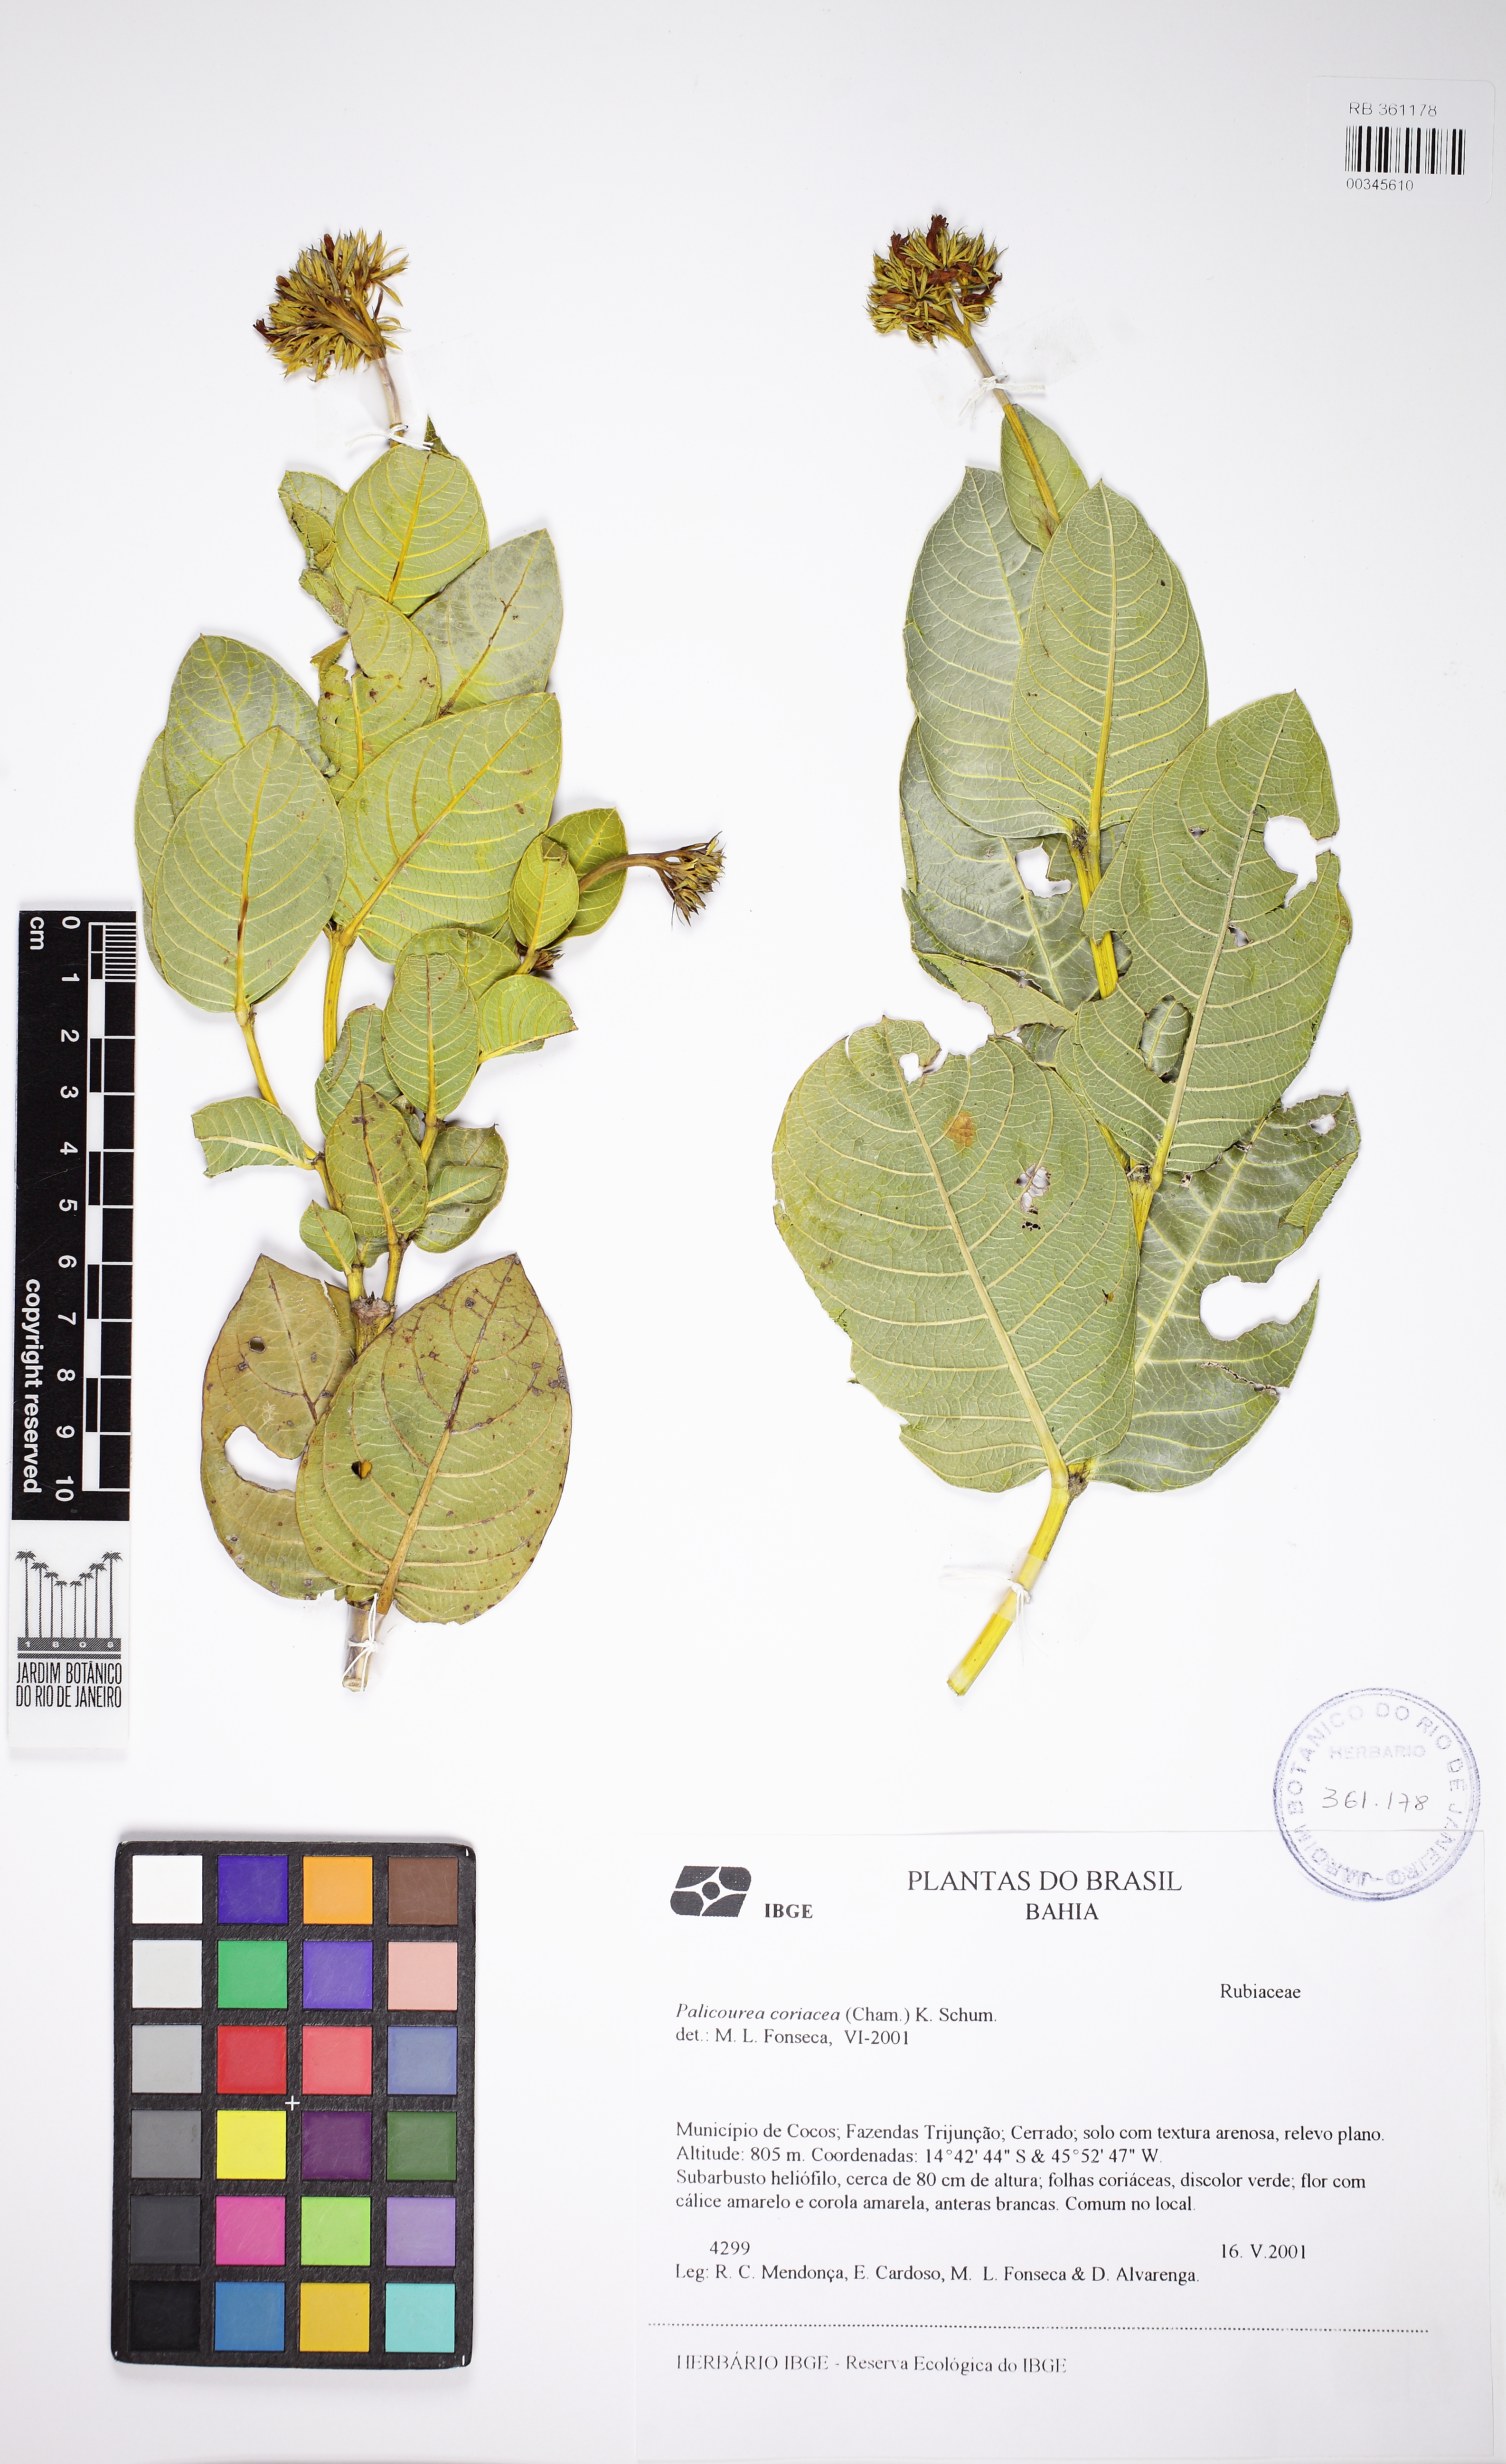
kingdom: Plantae
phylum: Tracheophyta
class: Magnoliopsida
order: Gentianales
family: Rubiaceae
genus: Palicourea
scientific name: Palicourea coriacea
